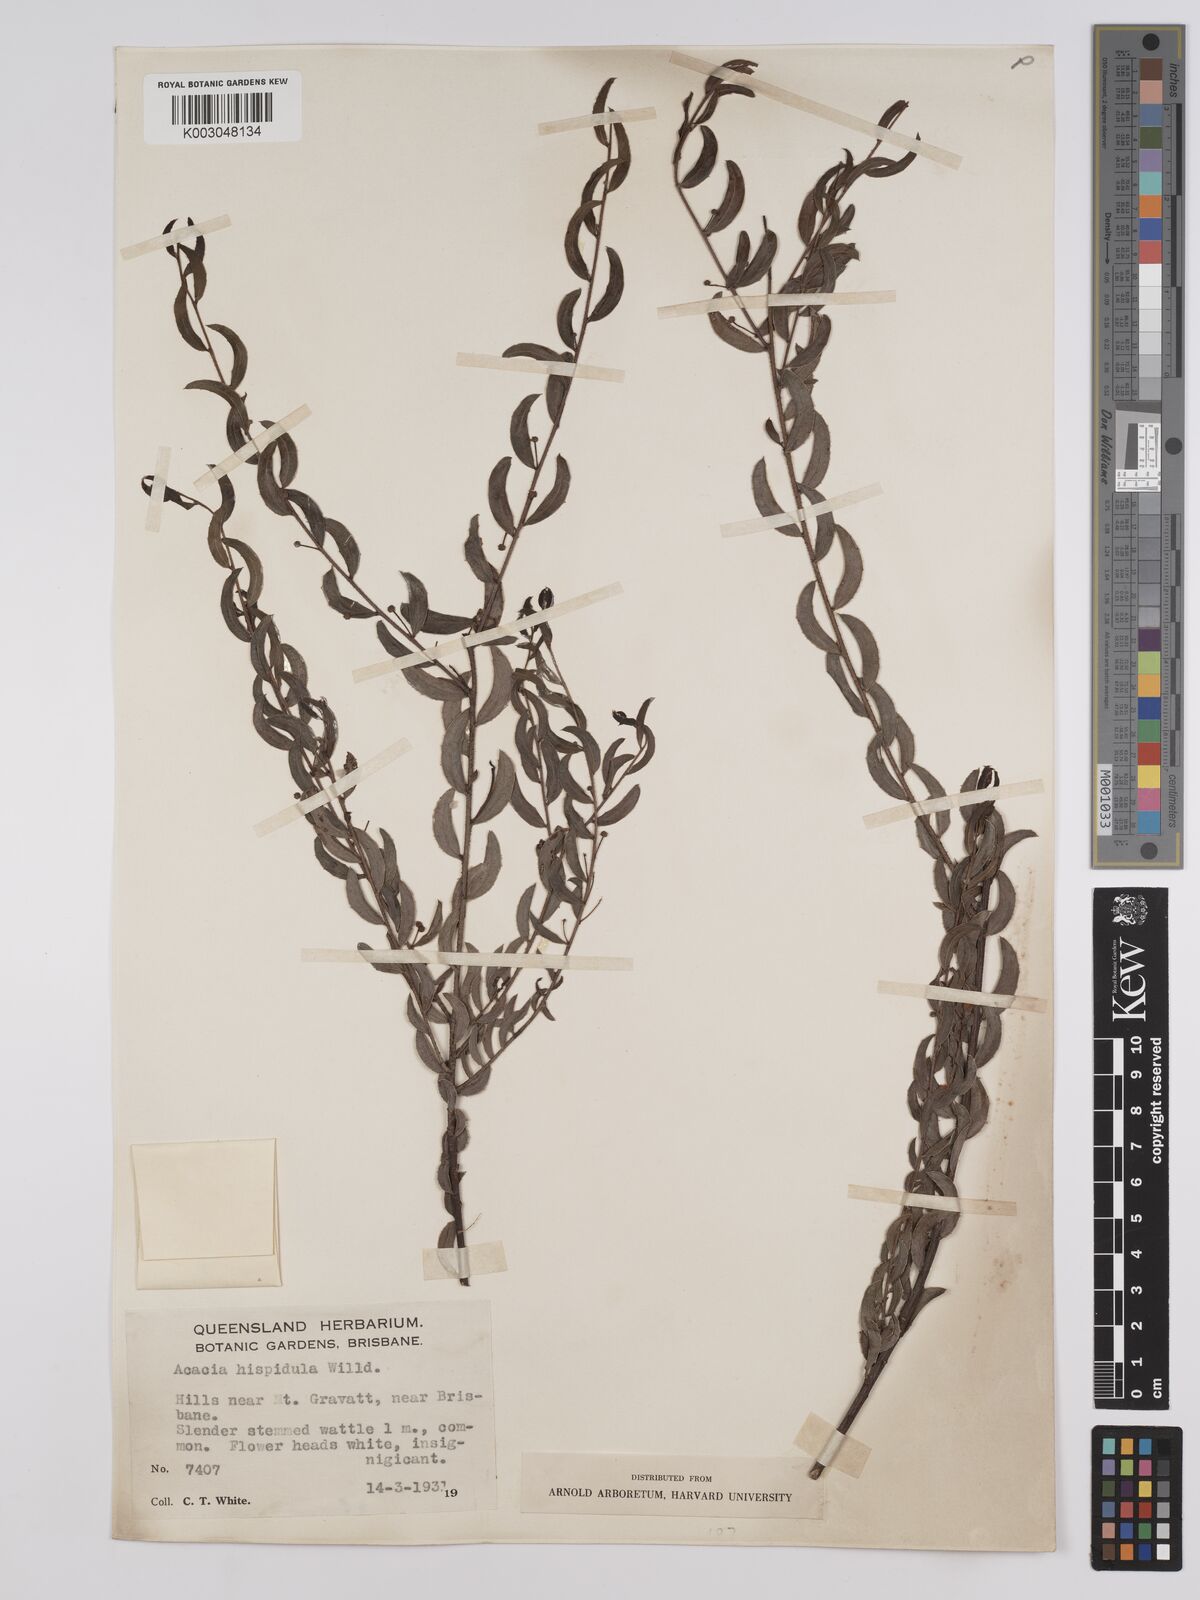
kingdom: Plantae
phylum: Tracheophyta
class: Magnoliopsida
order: Fabales
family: Fabaceae
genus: Acacia
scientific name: Acacia hispidula
